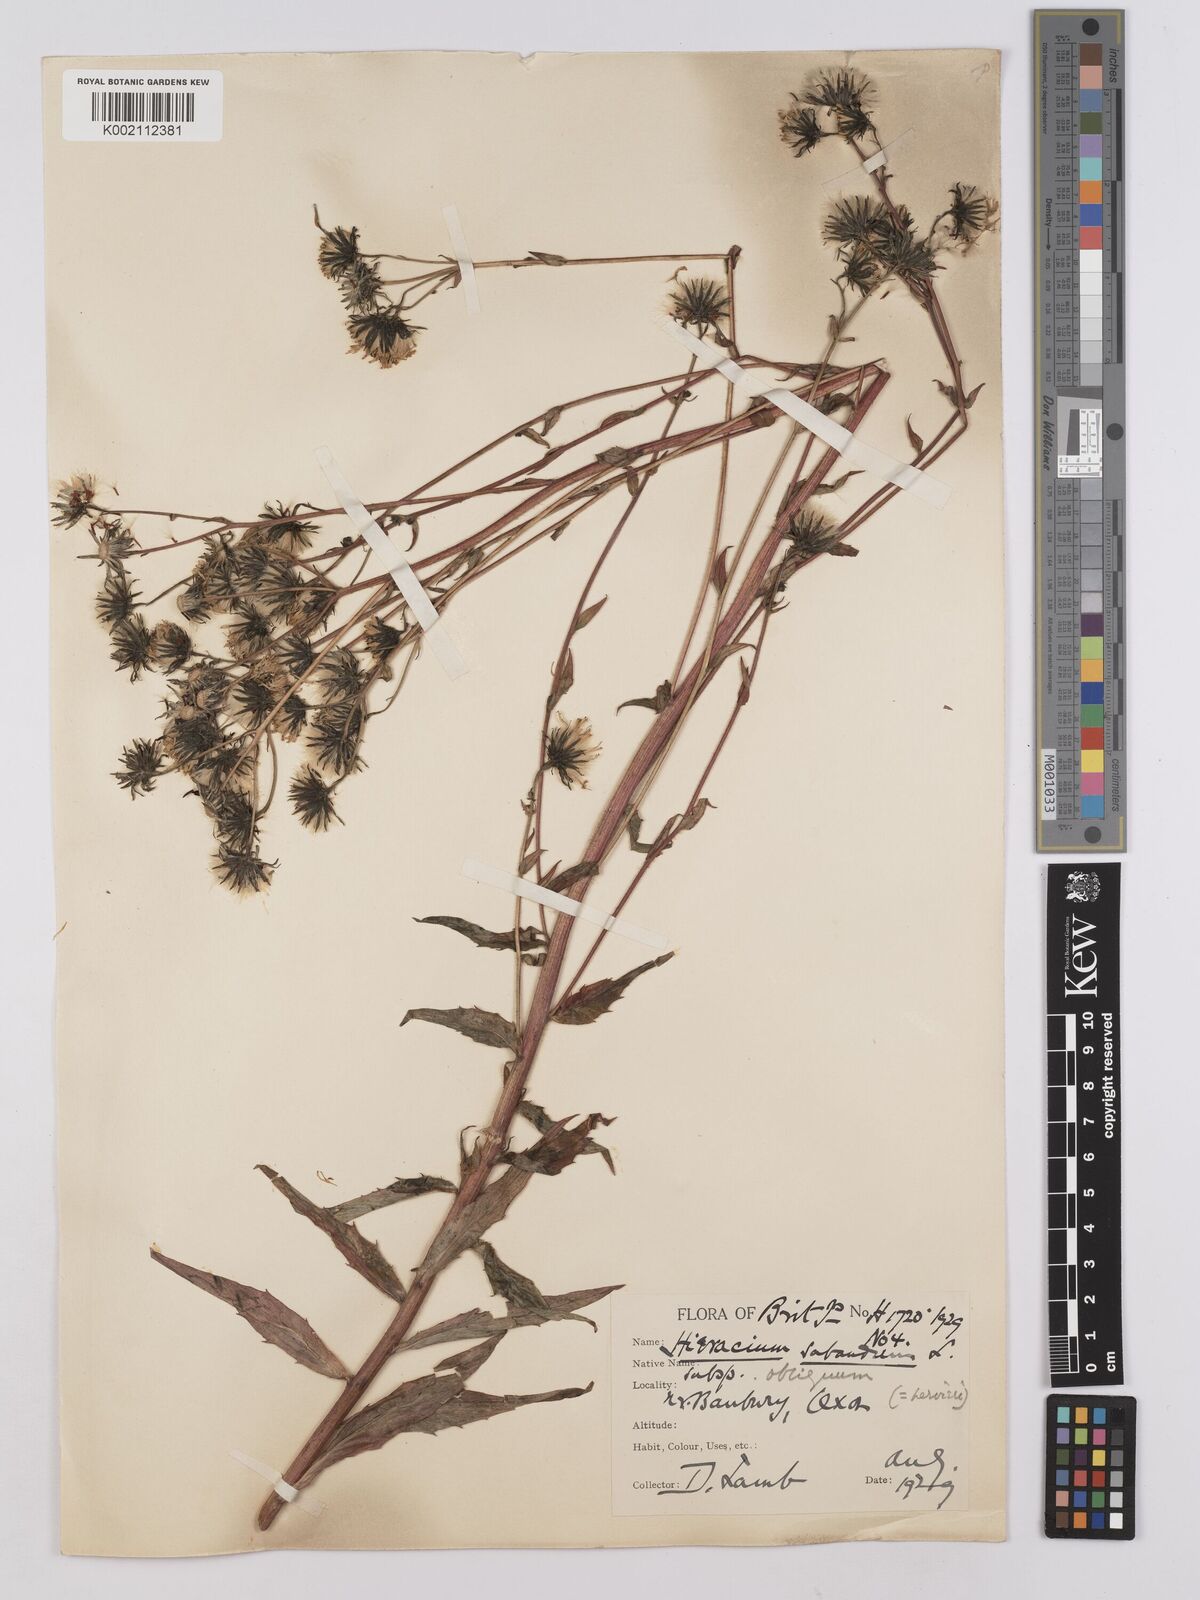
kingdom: Plantae
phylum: Tracheophyta
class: Magnoliopsida
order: Asterales
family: Asteraceae
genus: Hieracium
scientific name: Hieracium sabaudum
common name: New england hawkweed
